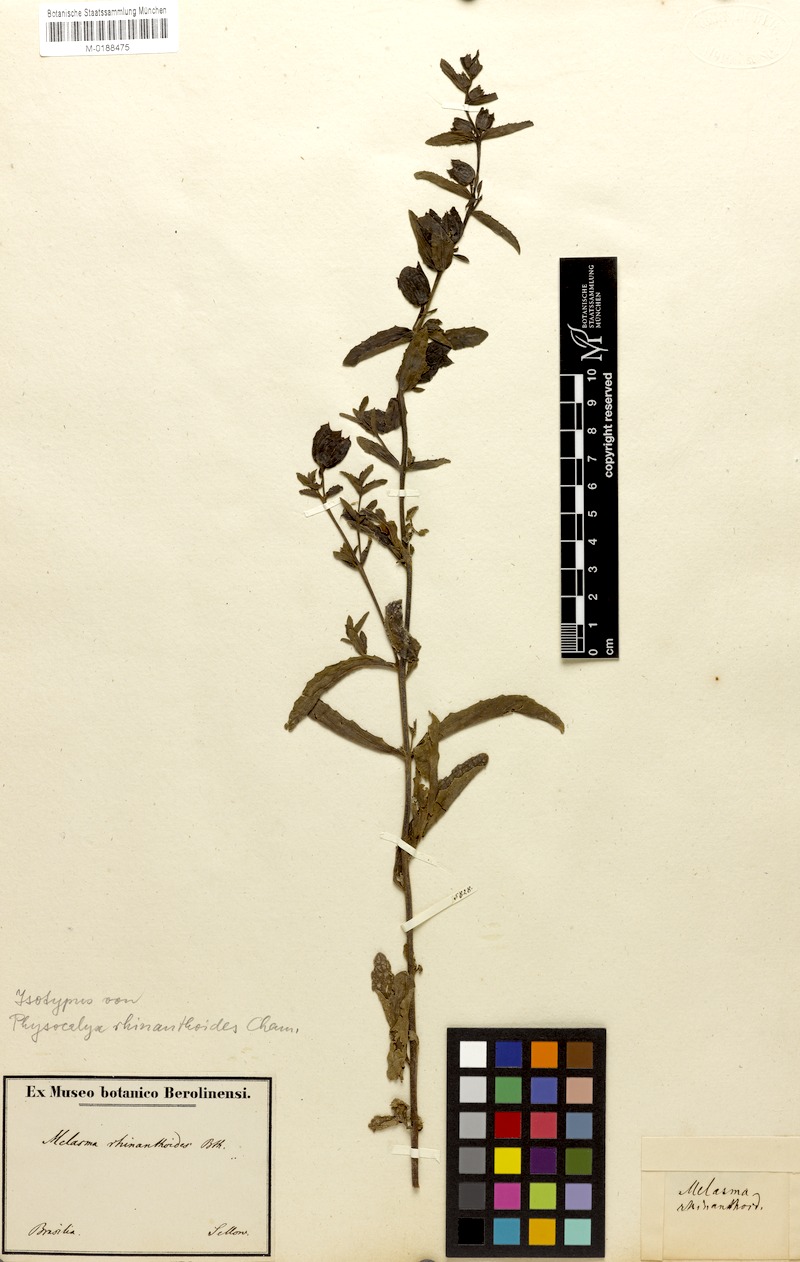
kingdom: Plantae
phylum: Tracheophyta
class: Magnoliopsida
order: Lamiales
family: Orobanchaceae
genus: Melasma
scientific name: Melasma rhinanthoides
